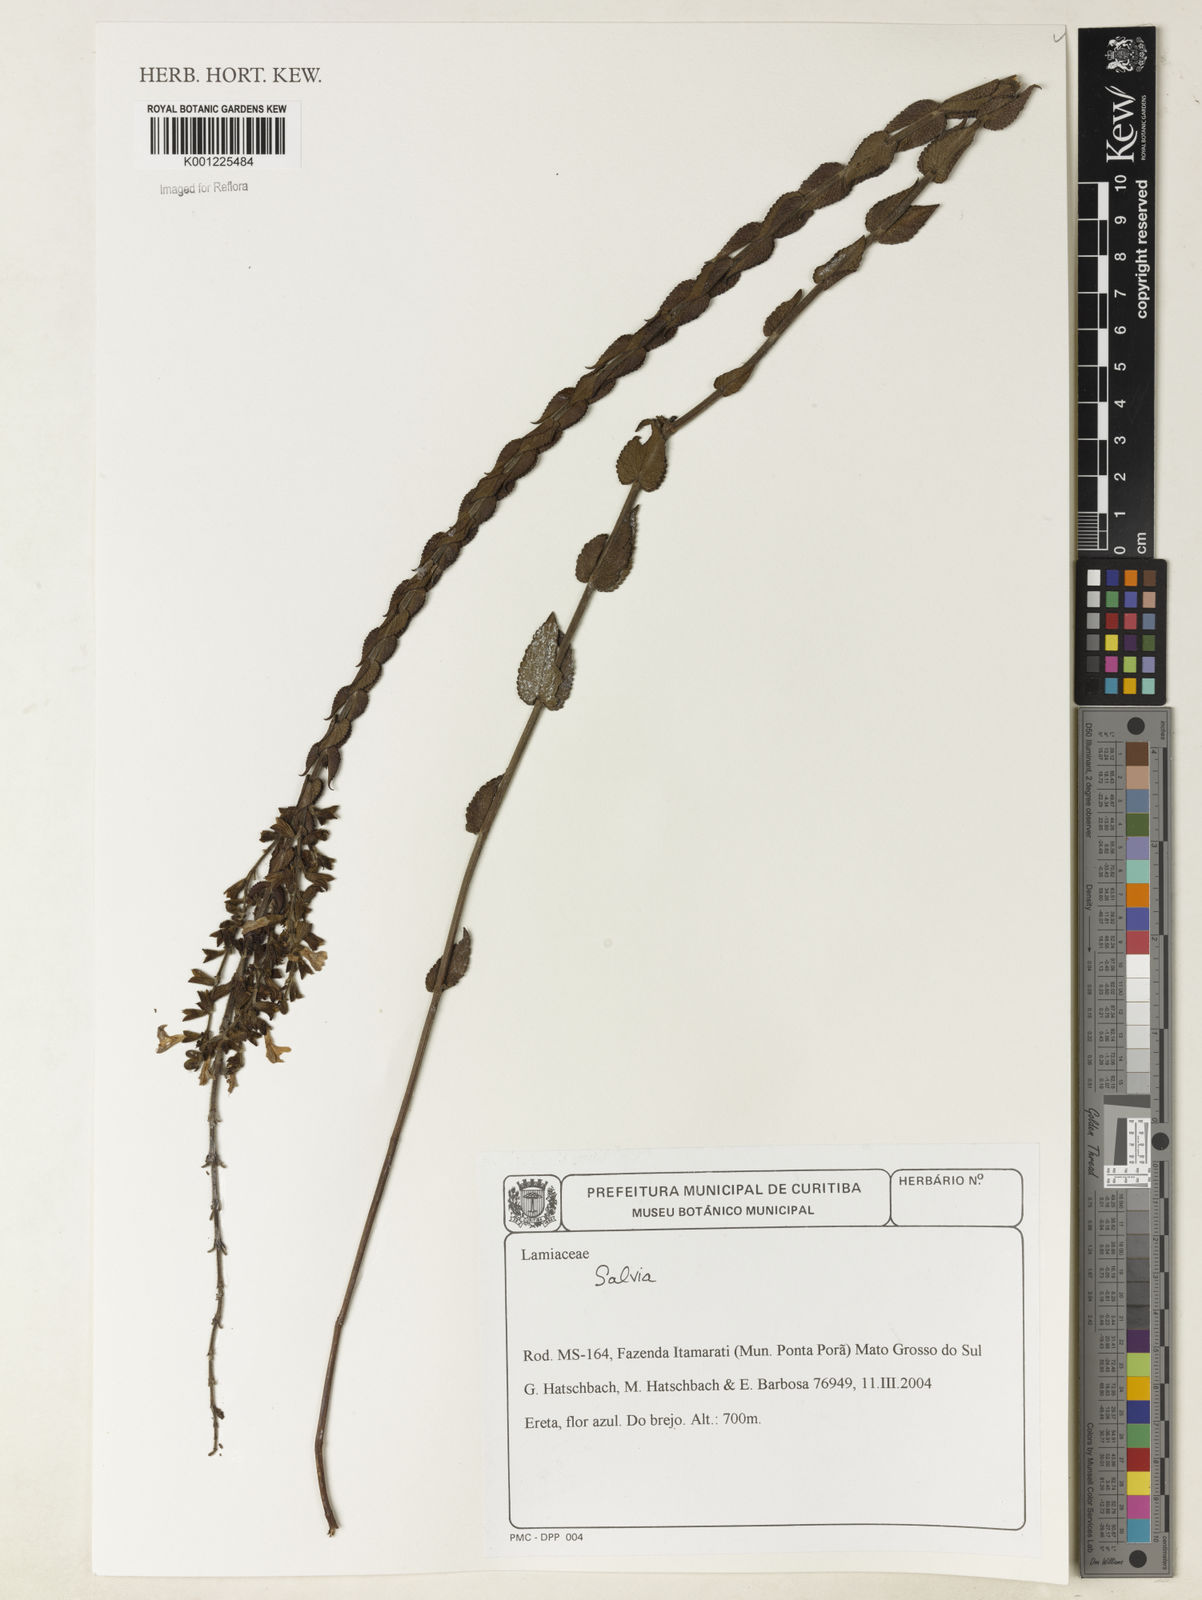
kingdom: Plantae
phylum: Tracheophyta
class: Magnoliopsida
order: Lamiales
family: Lamiaceae
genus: Salvia
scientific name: Salvia
